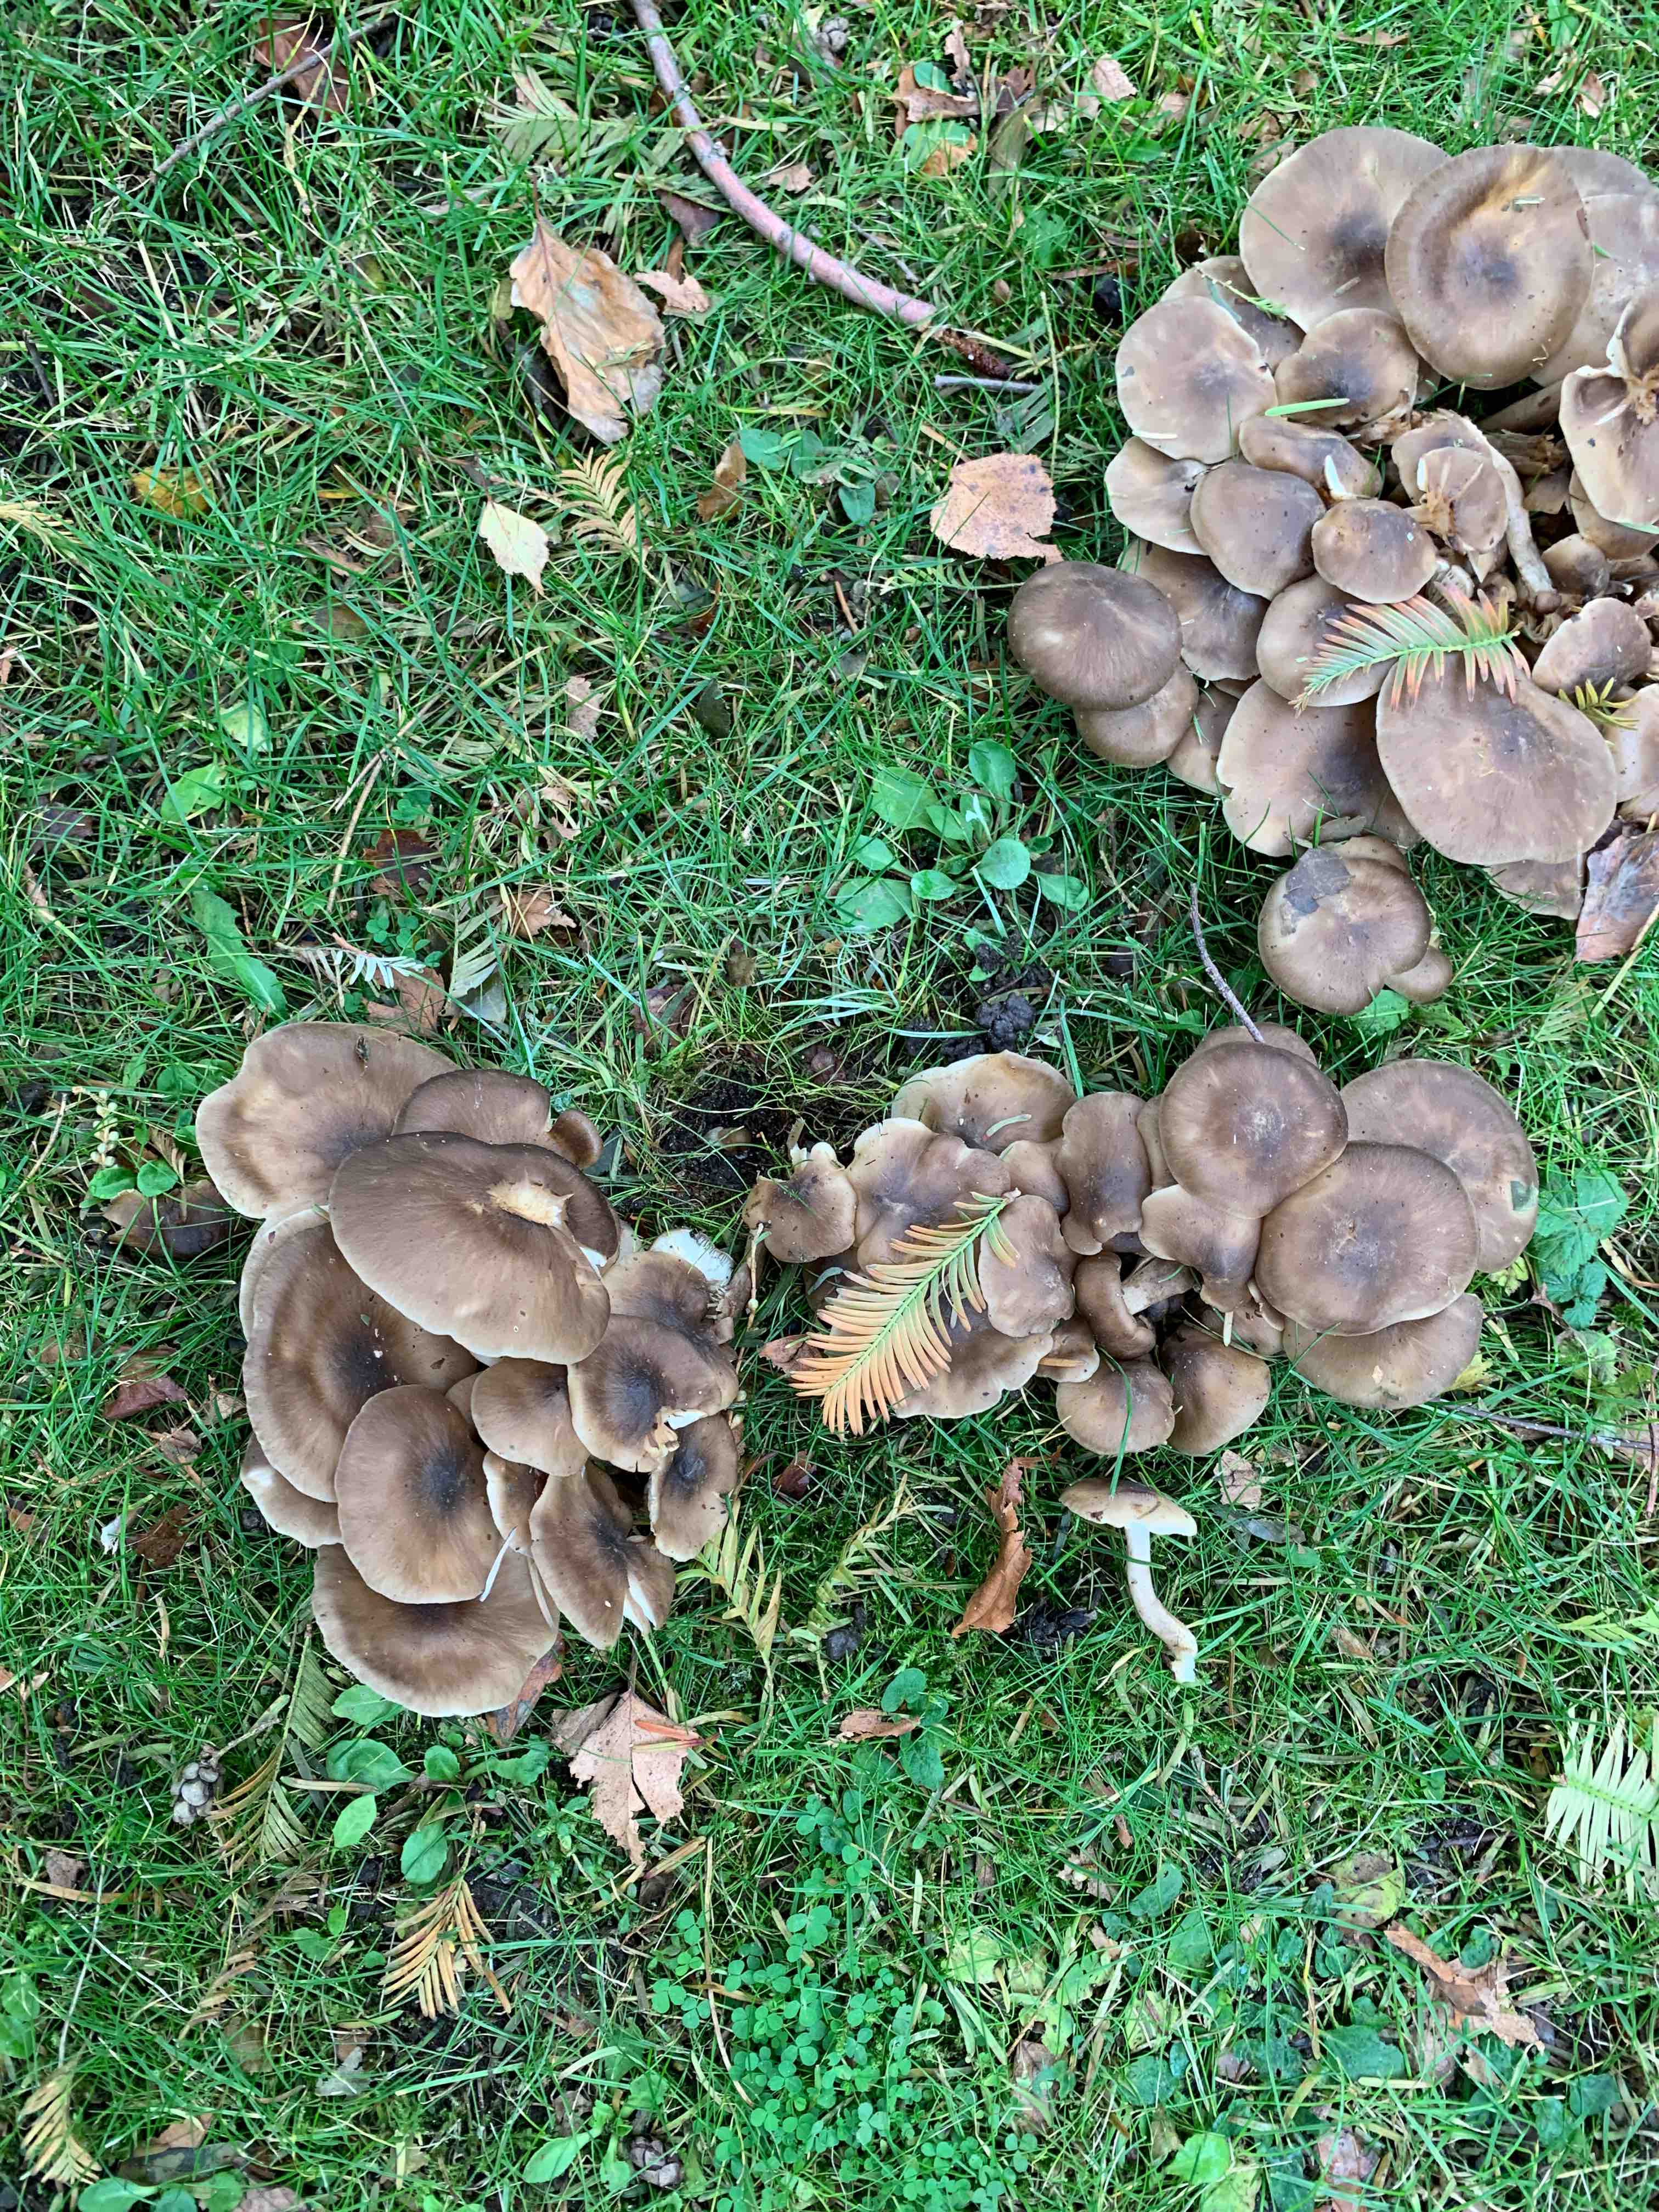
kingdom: Fungi
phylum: Basidiomycota
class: Agaricomycetes
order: Agaricales
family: Lyophyllaceae
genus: Lyophyllum
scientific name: Lyophyllum decastes
